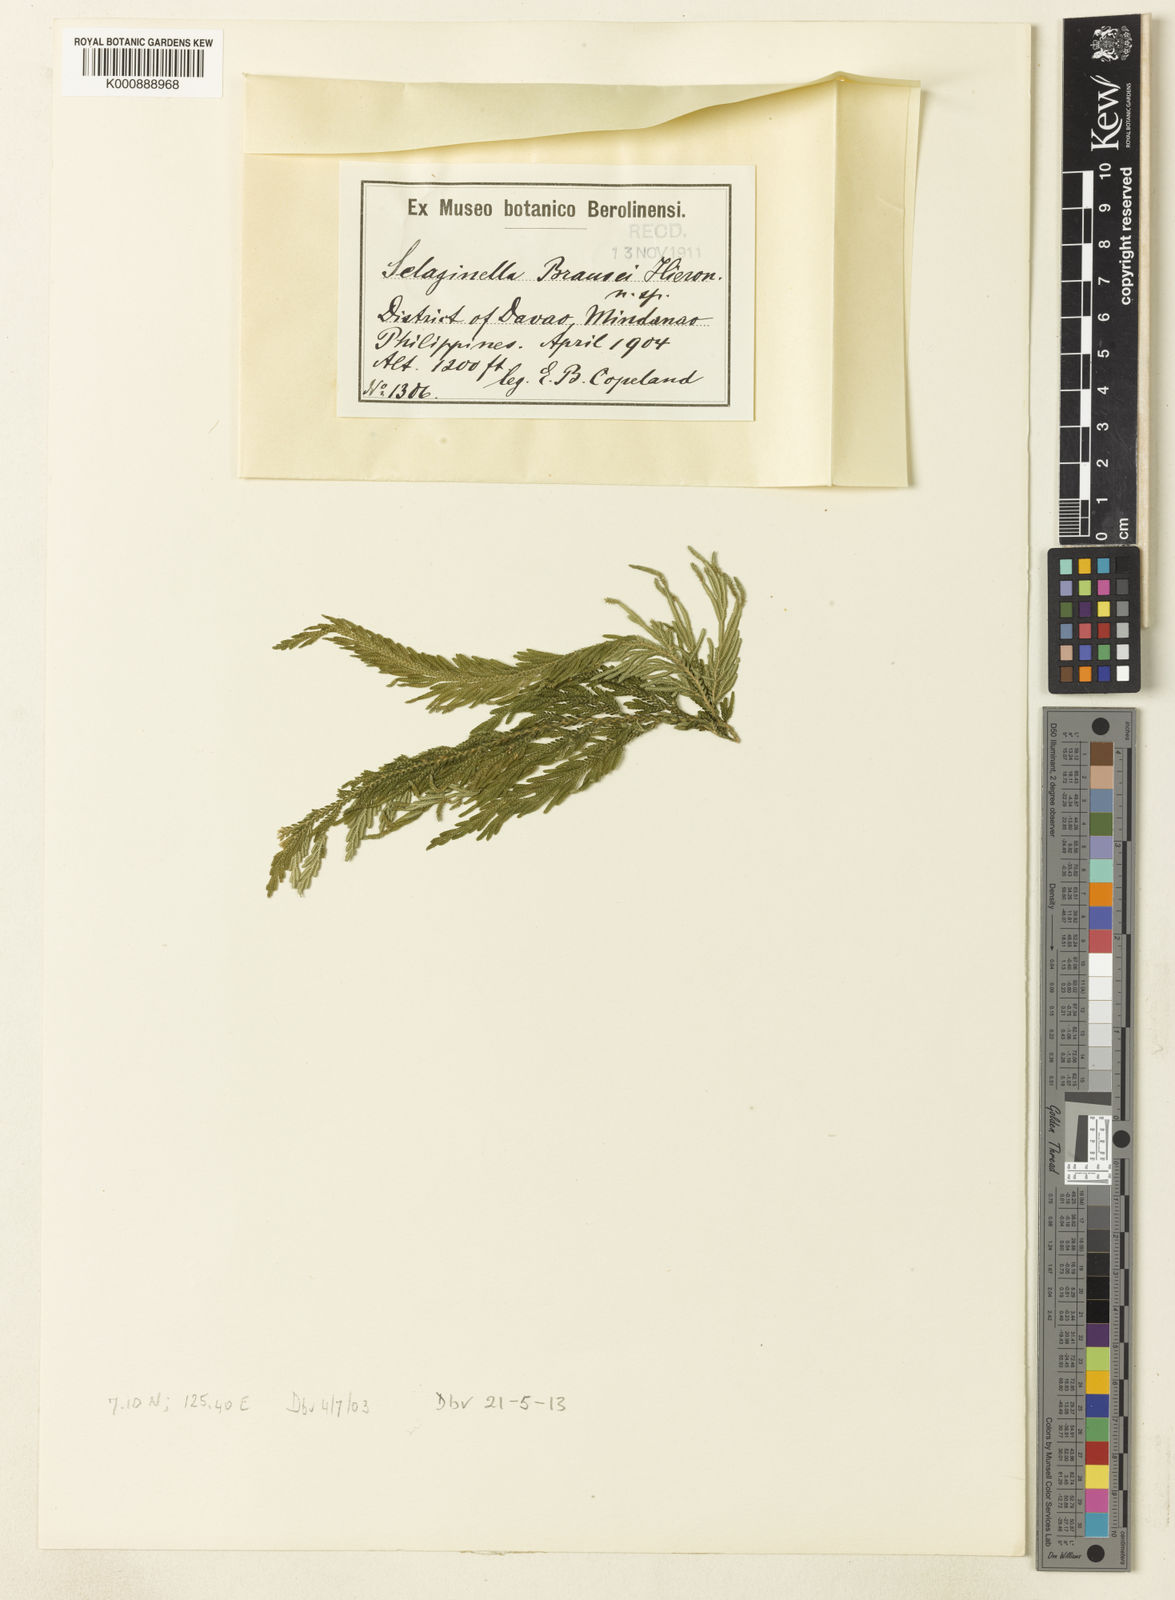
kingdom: Plantae
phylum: Tracheophyta
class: Lycopodiopsida
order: Selaginellales
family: Selaginellaceae
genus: Selaginella
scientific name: Selaginella
